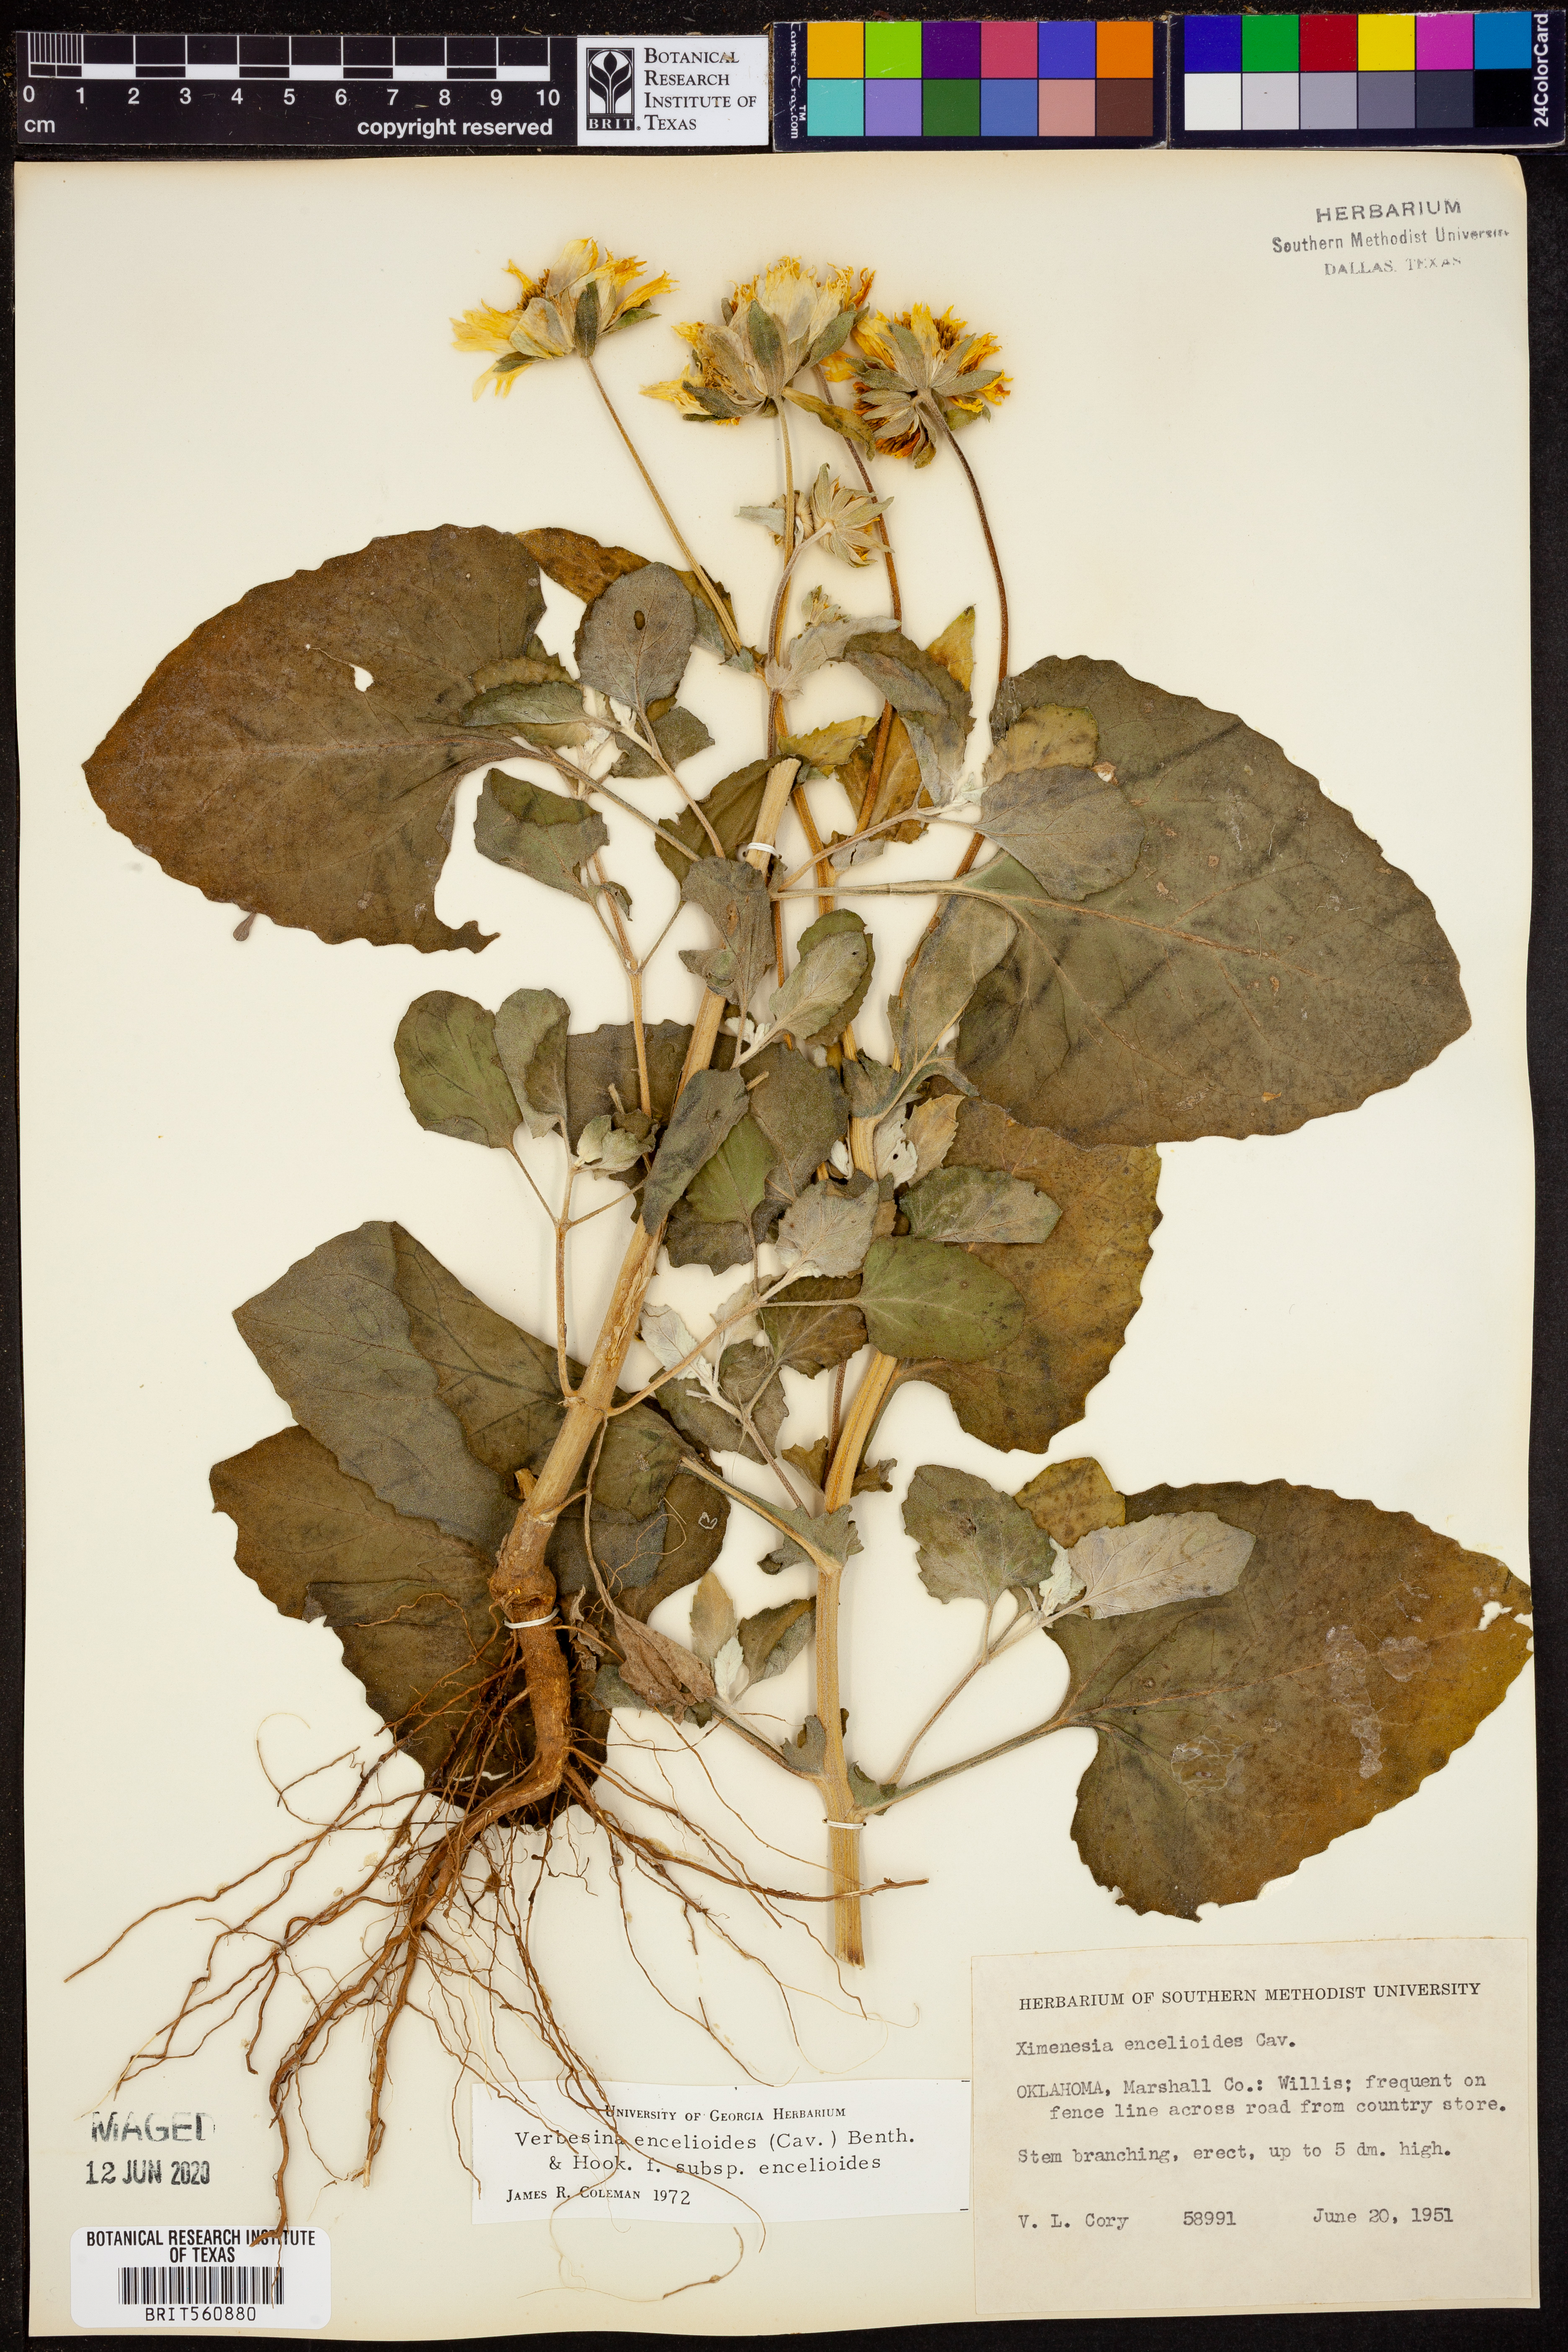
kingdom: Plantae
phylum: Tracheophyta
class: Magnoliopsida
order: Asterales
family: Asteraceae
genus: Verbesina
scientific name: Verbesina encelioides
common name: Golden crownbeard
